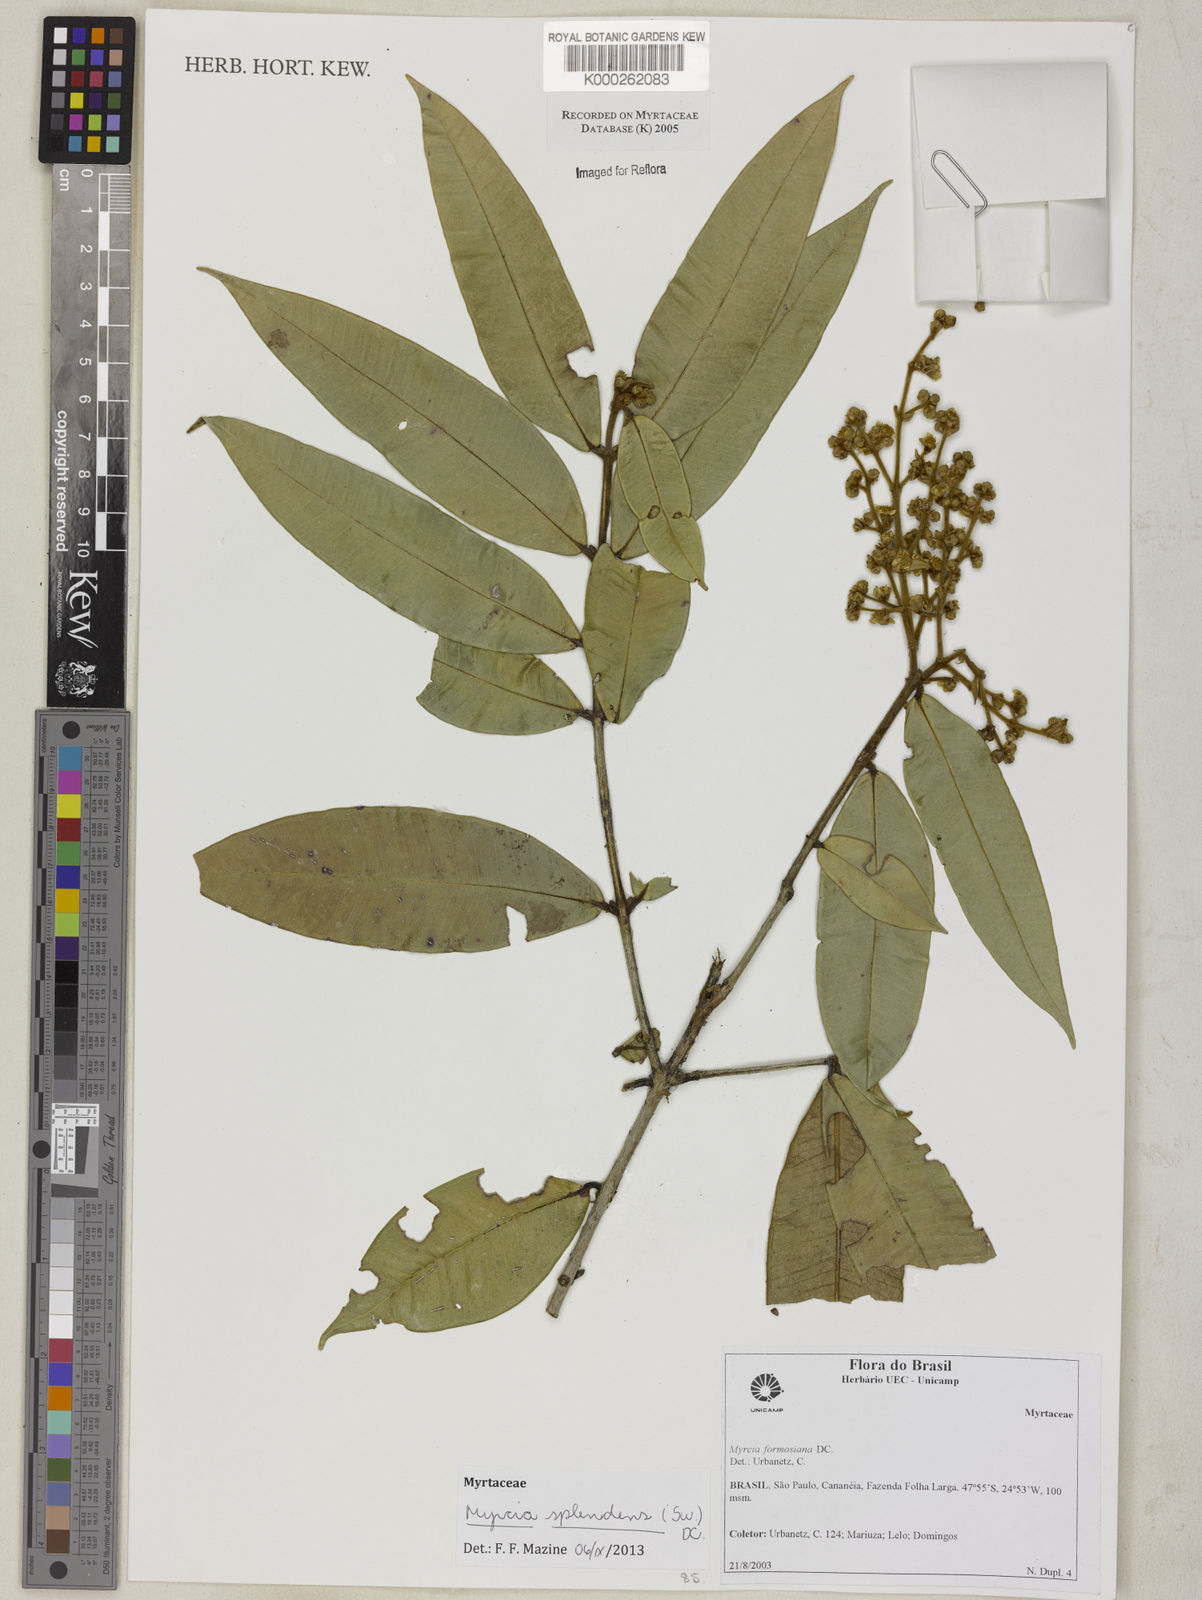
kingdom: Plantae
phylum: Tracheophyta
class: Magnoliopsida
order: Myrtales
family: Myrtaceae
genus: Myrcia
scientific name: Myrcia splendens
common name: Surinam cherry
